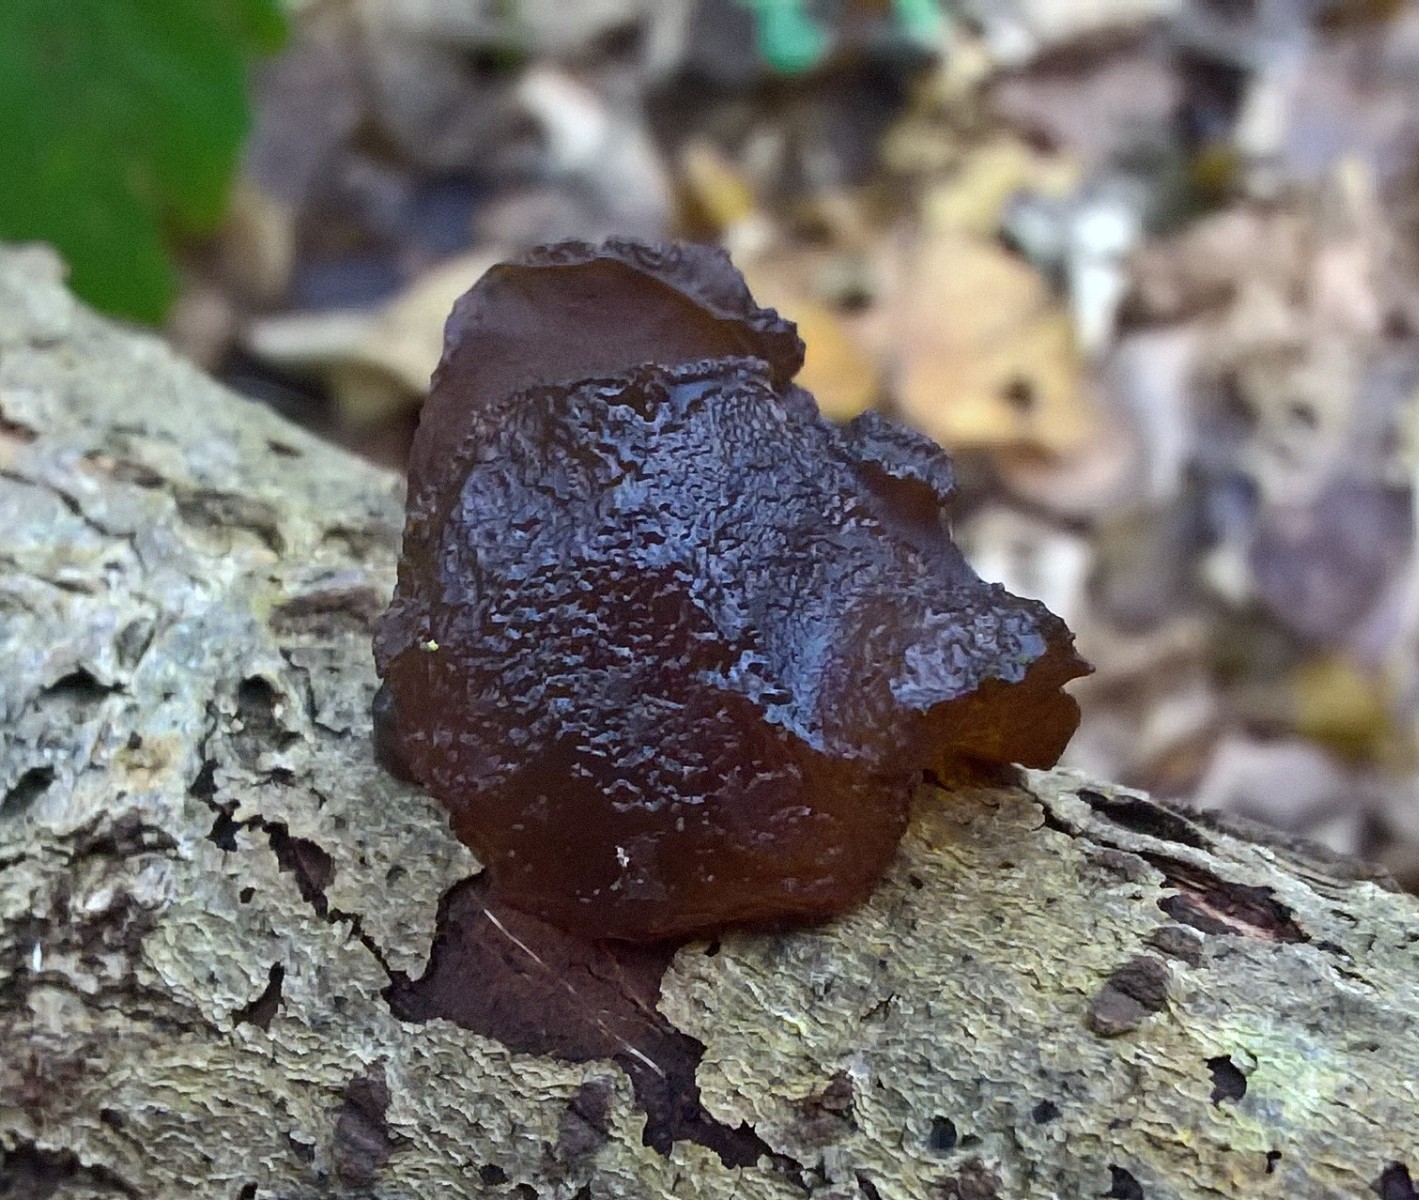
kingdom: Fungi
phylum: Basidiomycota
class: Agaricomycetes
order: Auriculariales
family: Auriculariaceae
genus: Exidia
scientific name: Exidia glandulosa
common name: ege-bævretop
